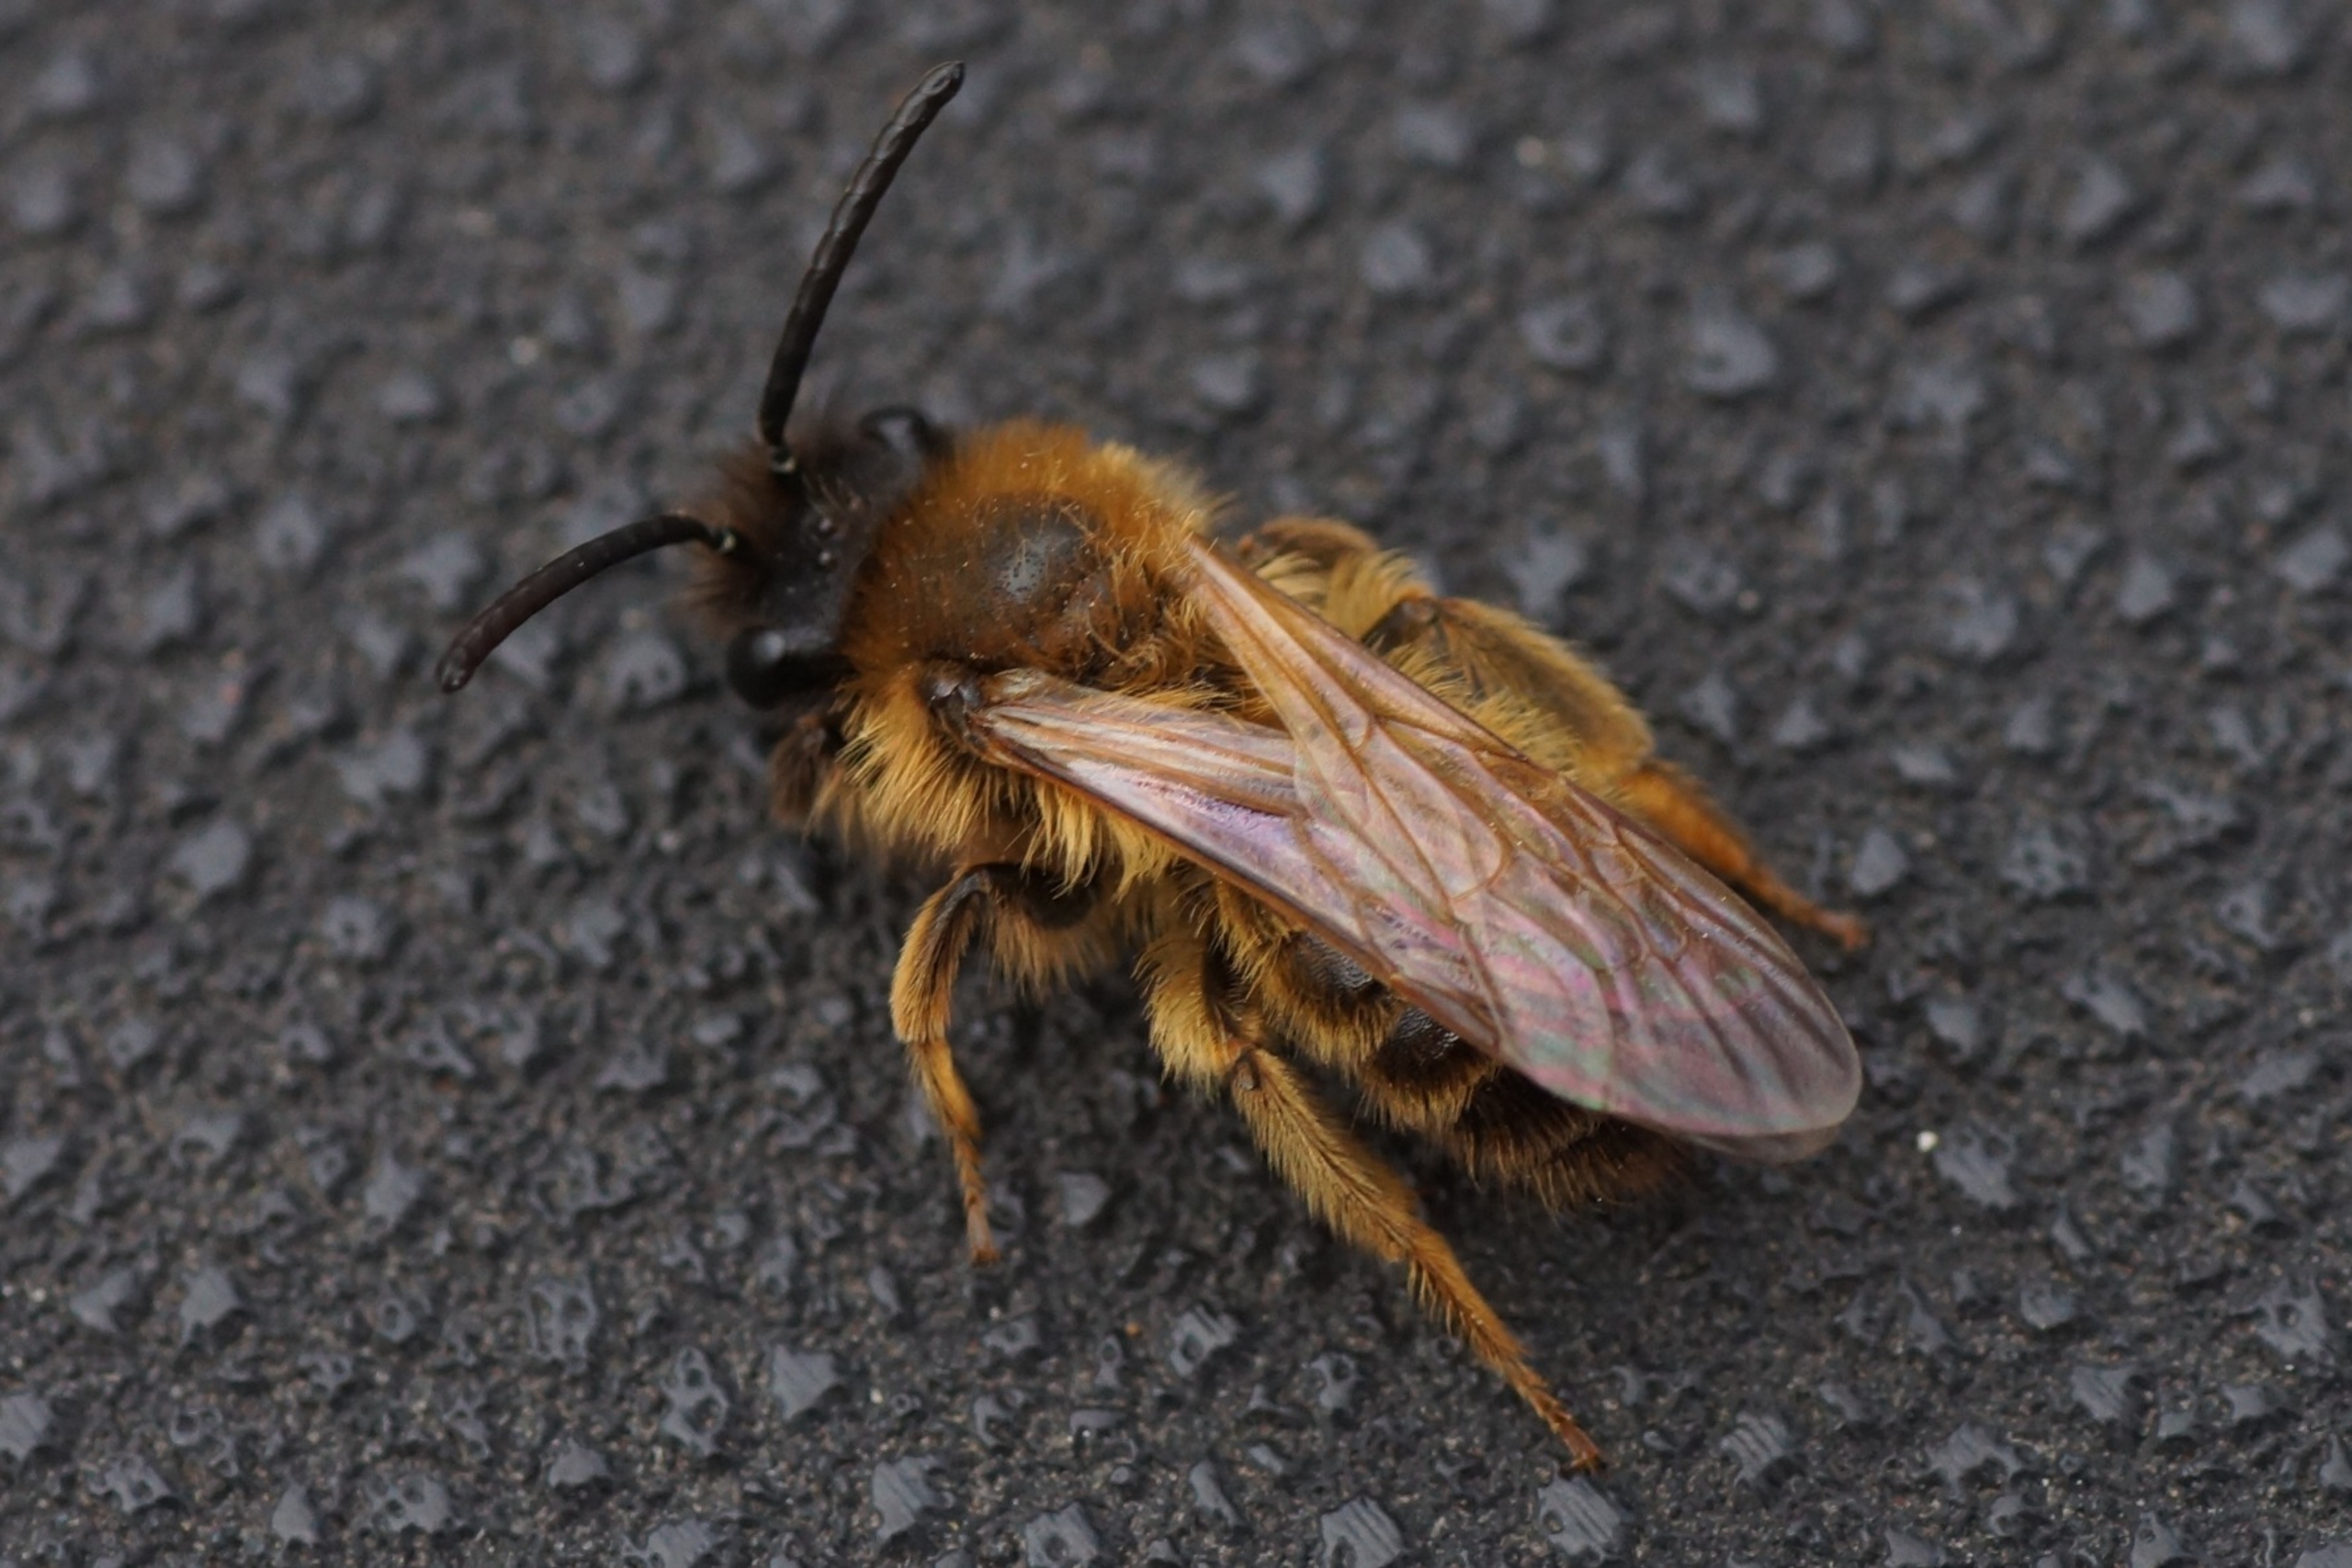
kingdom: Animalia
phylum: Arthropoda
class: Insecta
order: Hymenoptera
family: Andrenidae
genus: Andrena
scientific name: Andrena praecox
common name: Forårsjordbi
